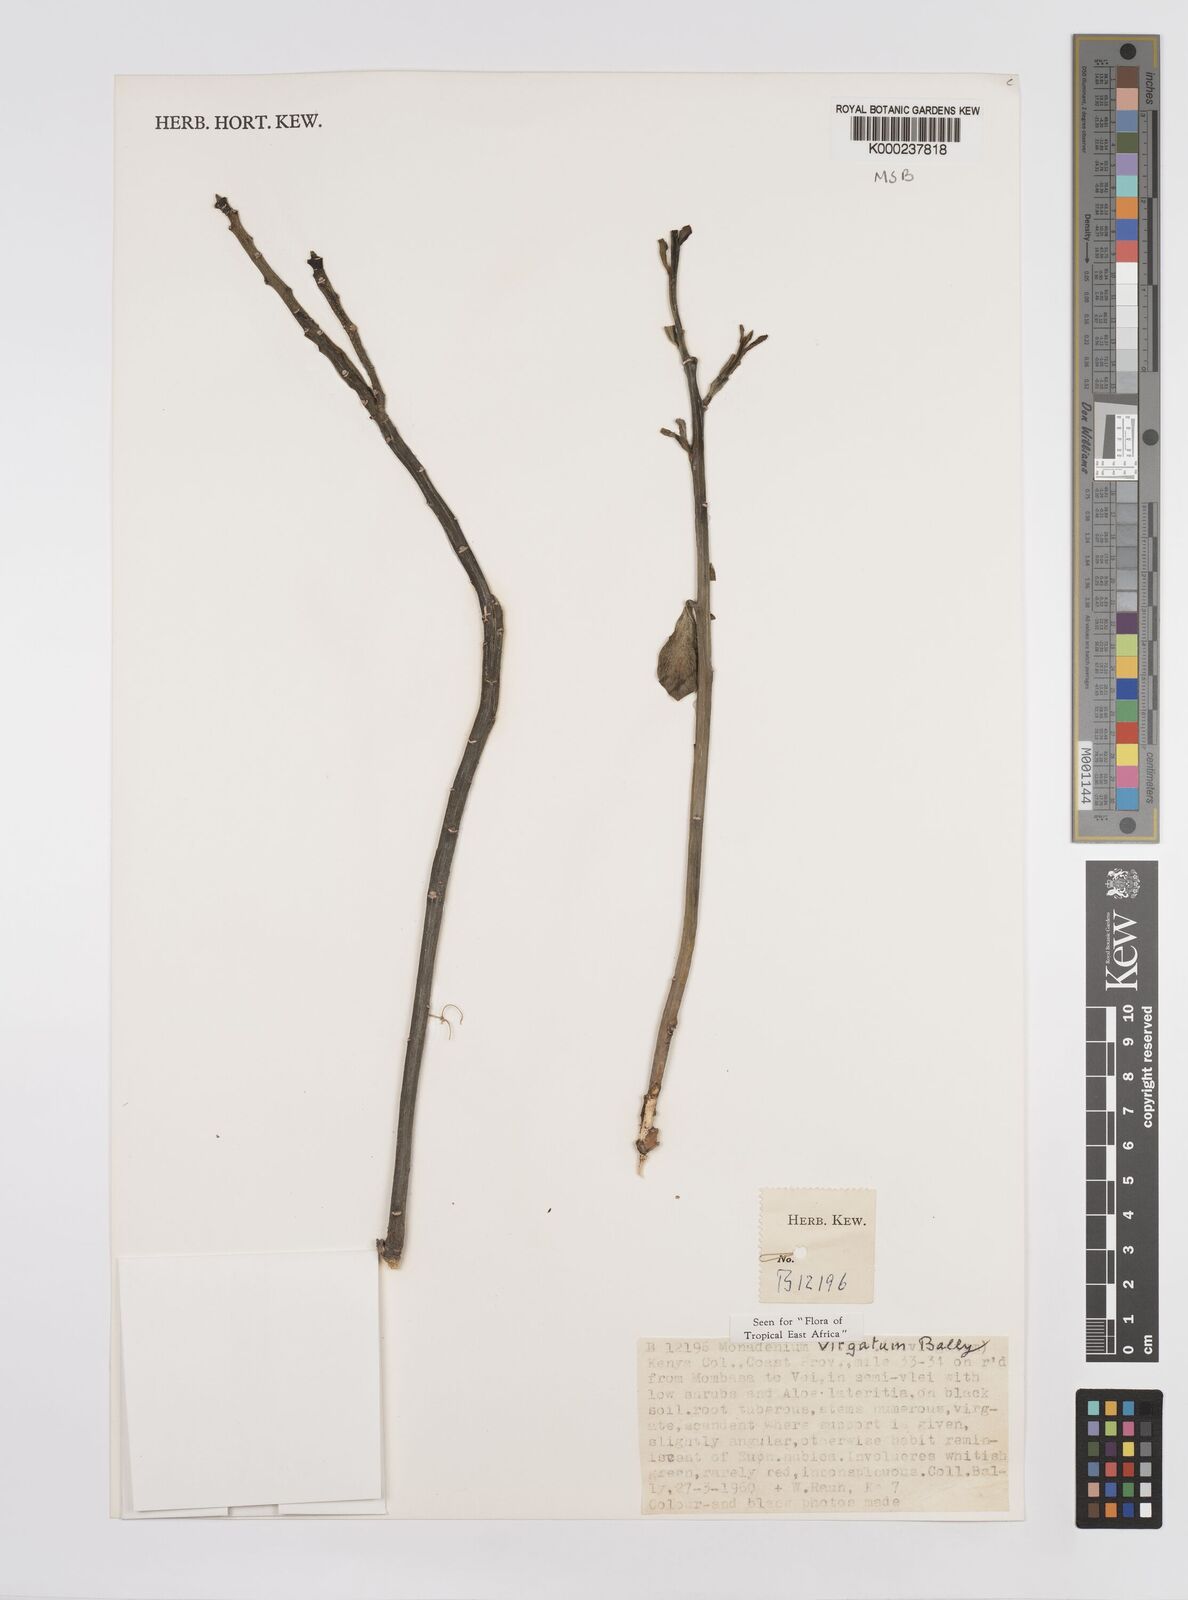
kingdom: Plantae
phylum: Tracheophyta
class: Magnoliopsida
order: Malpighiales
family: Euphorbiaceae
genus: Euphorbia
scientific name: Euphorbia neovirgata
